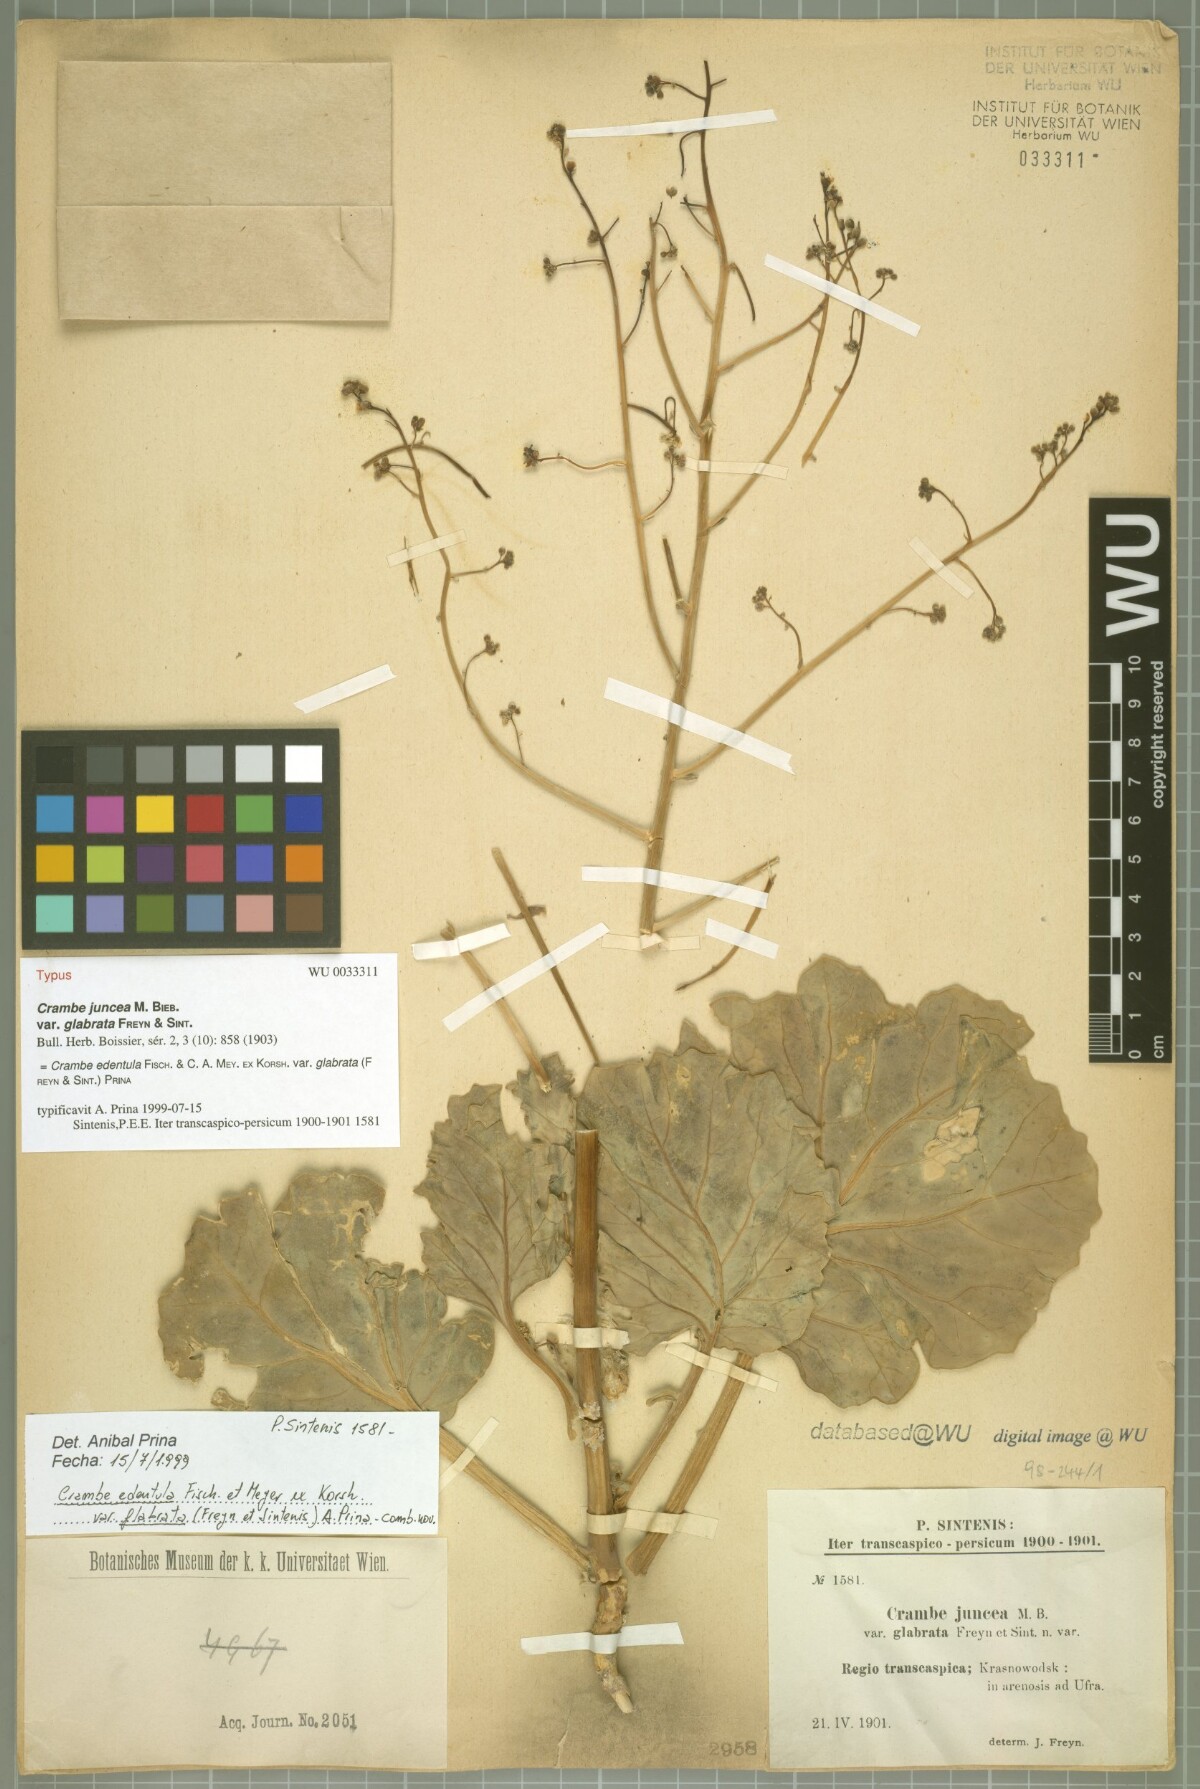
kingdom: Plantae
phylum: Tracheophyta
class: Magnoliopsida
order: Brassicales
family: Brassicaceae
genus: Crambe
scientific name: Crambe edentula
